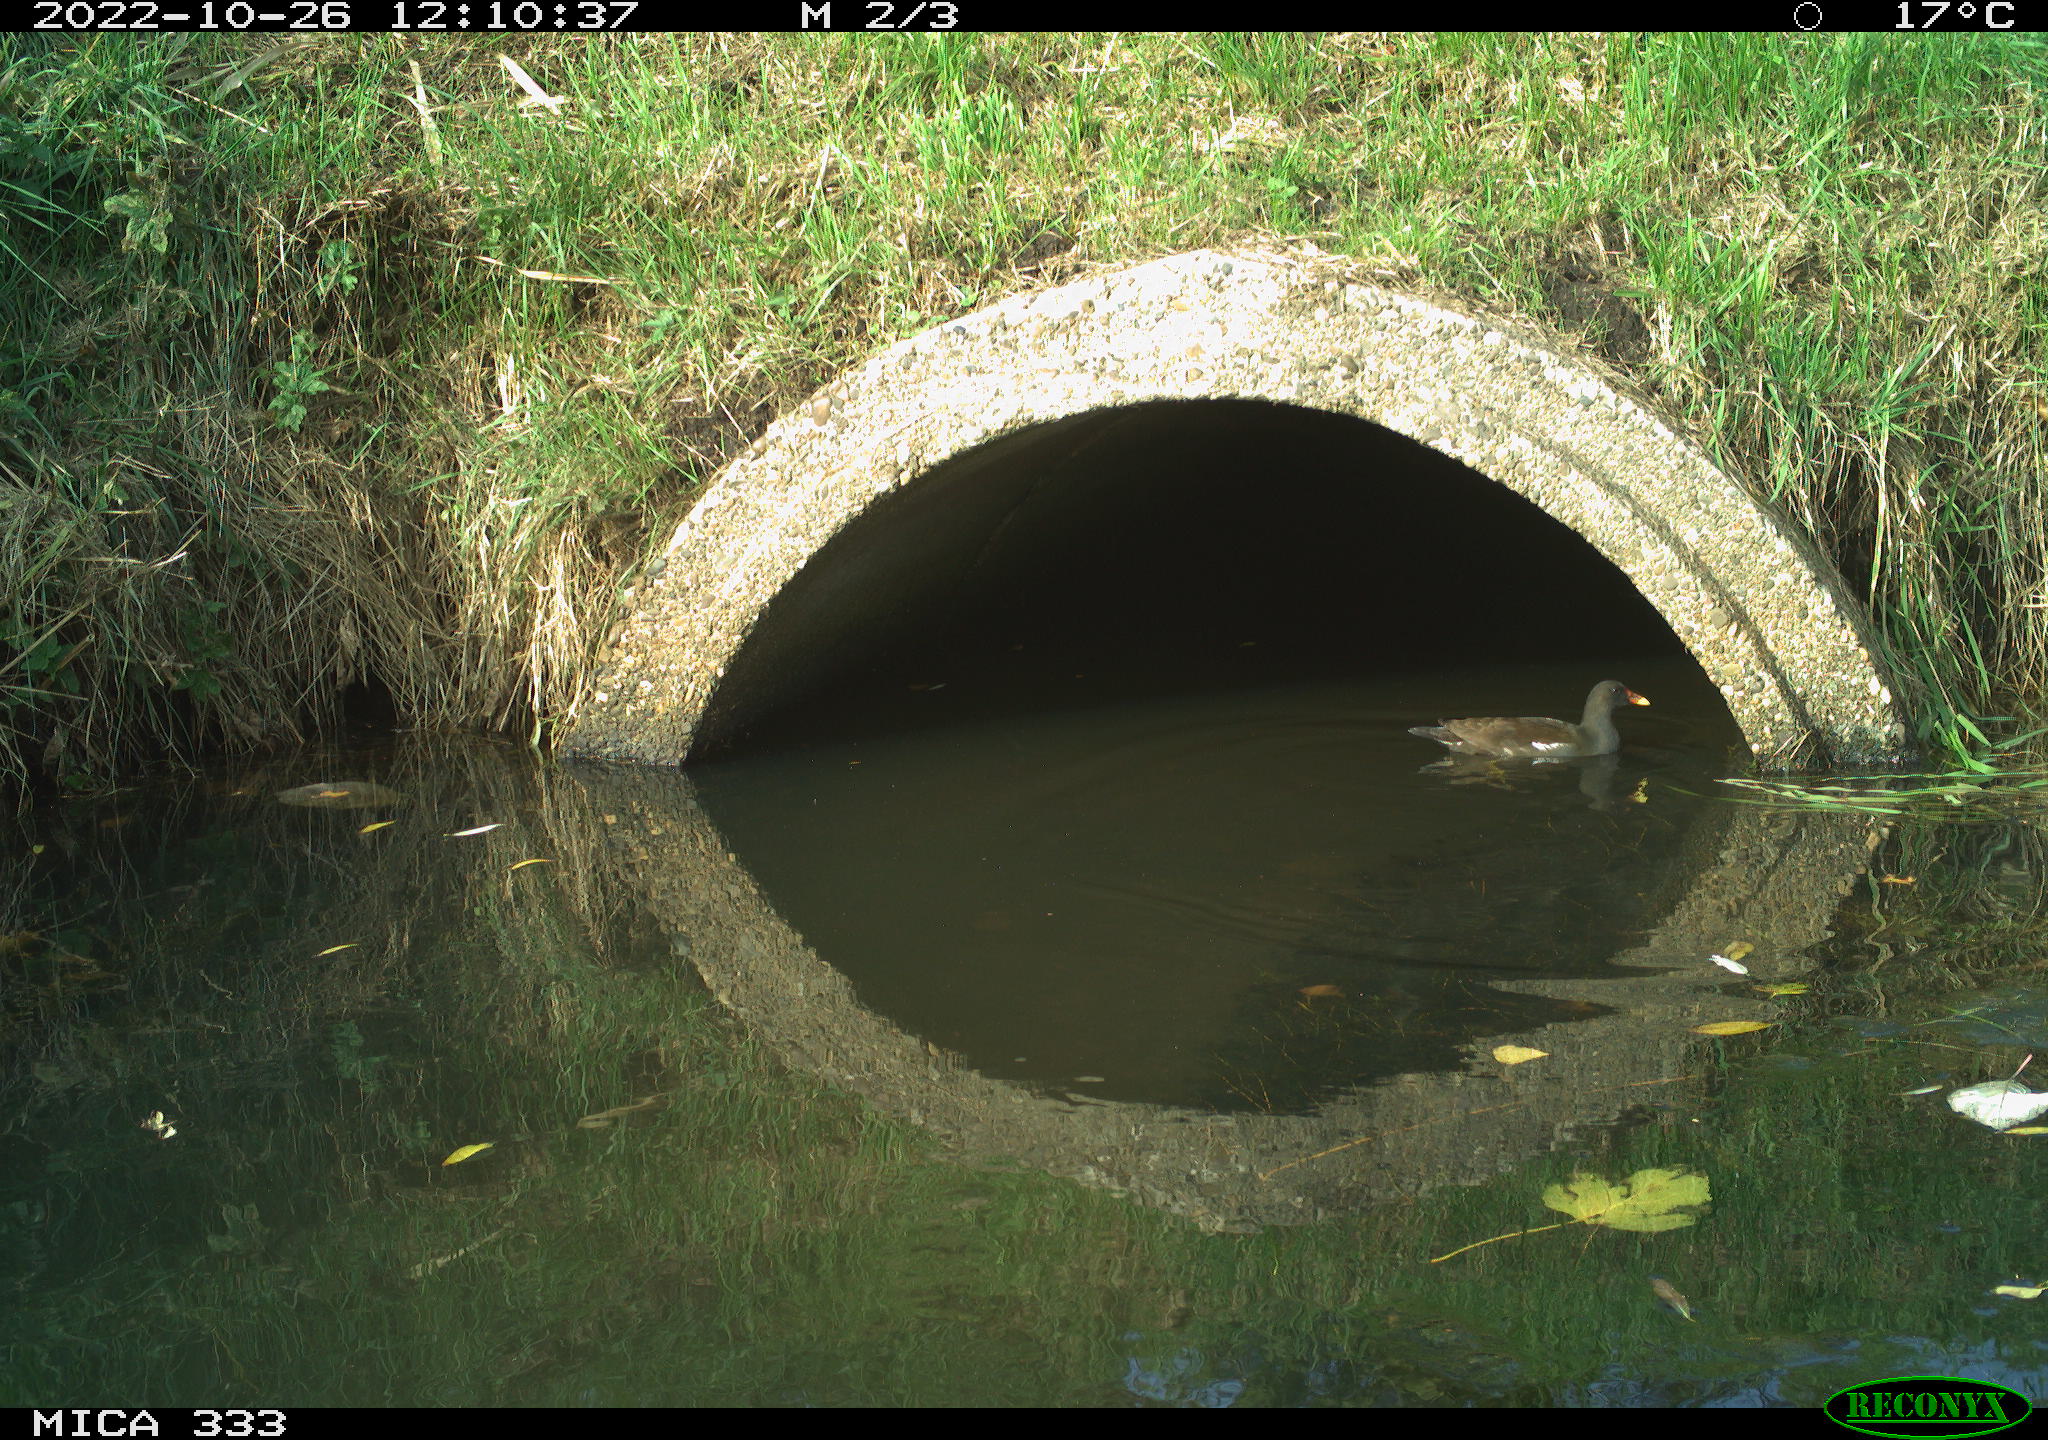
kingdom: Animalia
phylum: Chordata
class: Aves
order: Gruiformes
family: Rallidae
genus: Gallinula
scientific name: Gallinula chloropus
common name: Common moorhen
